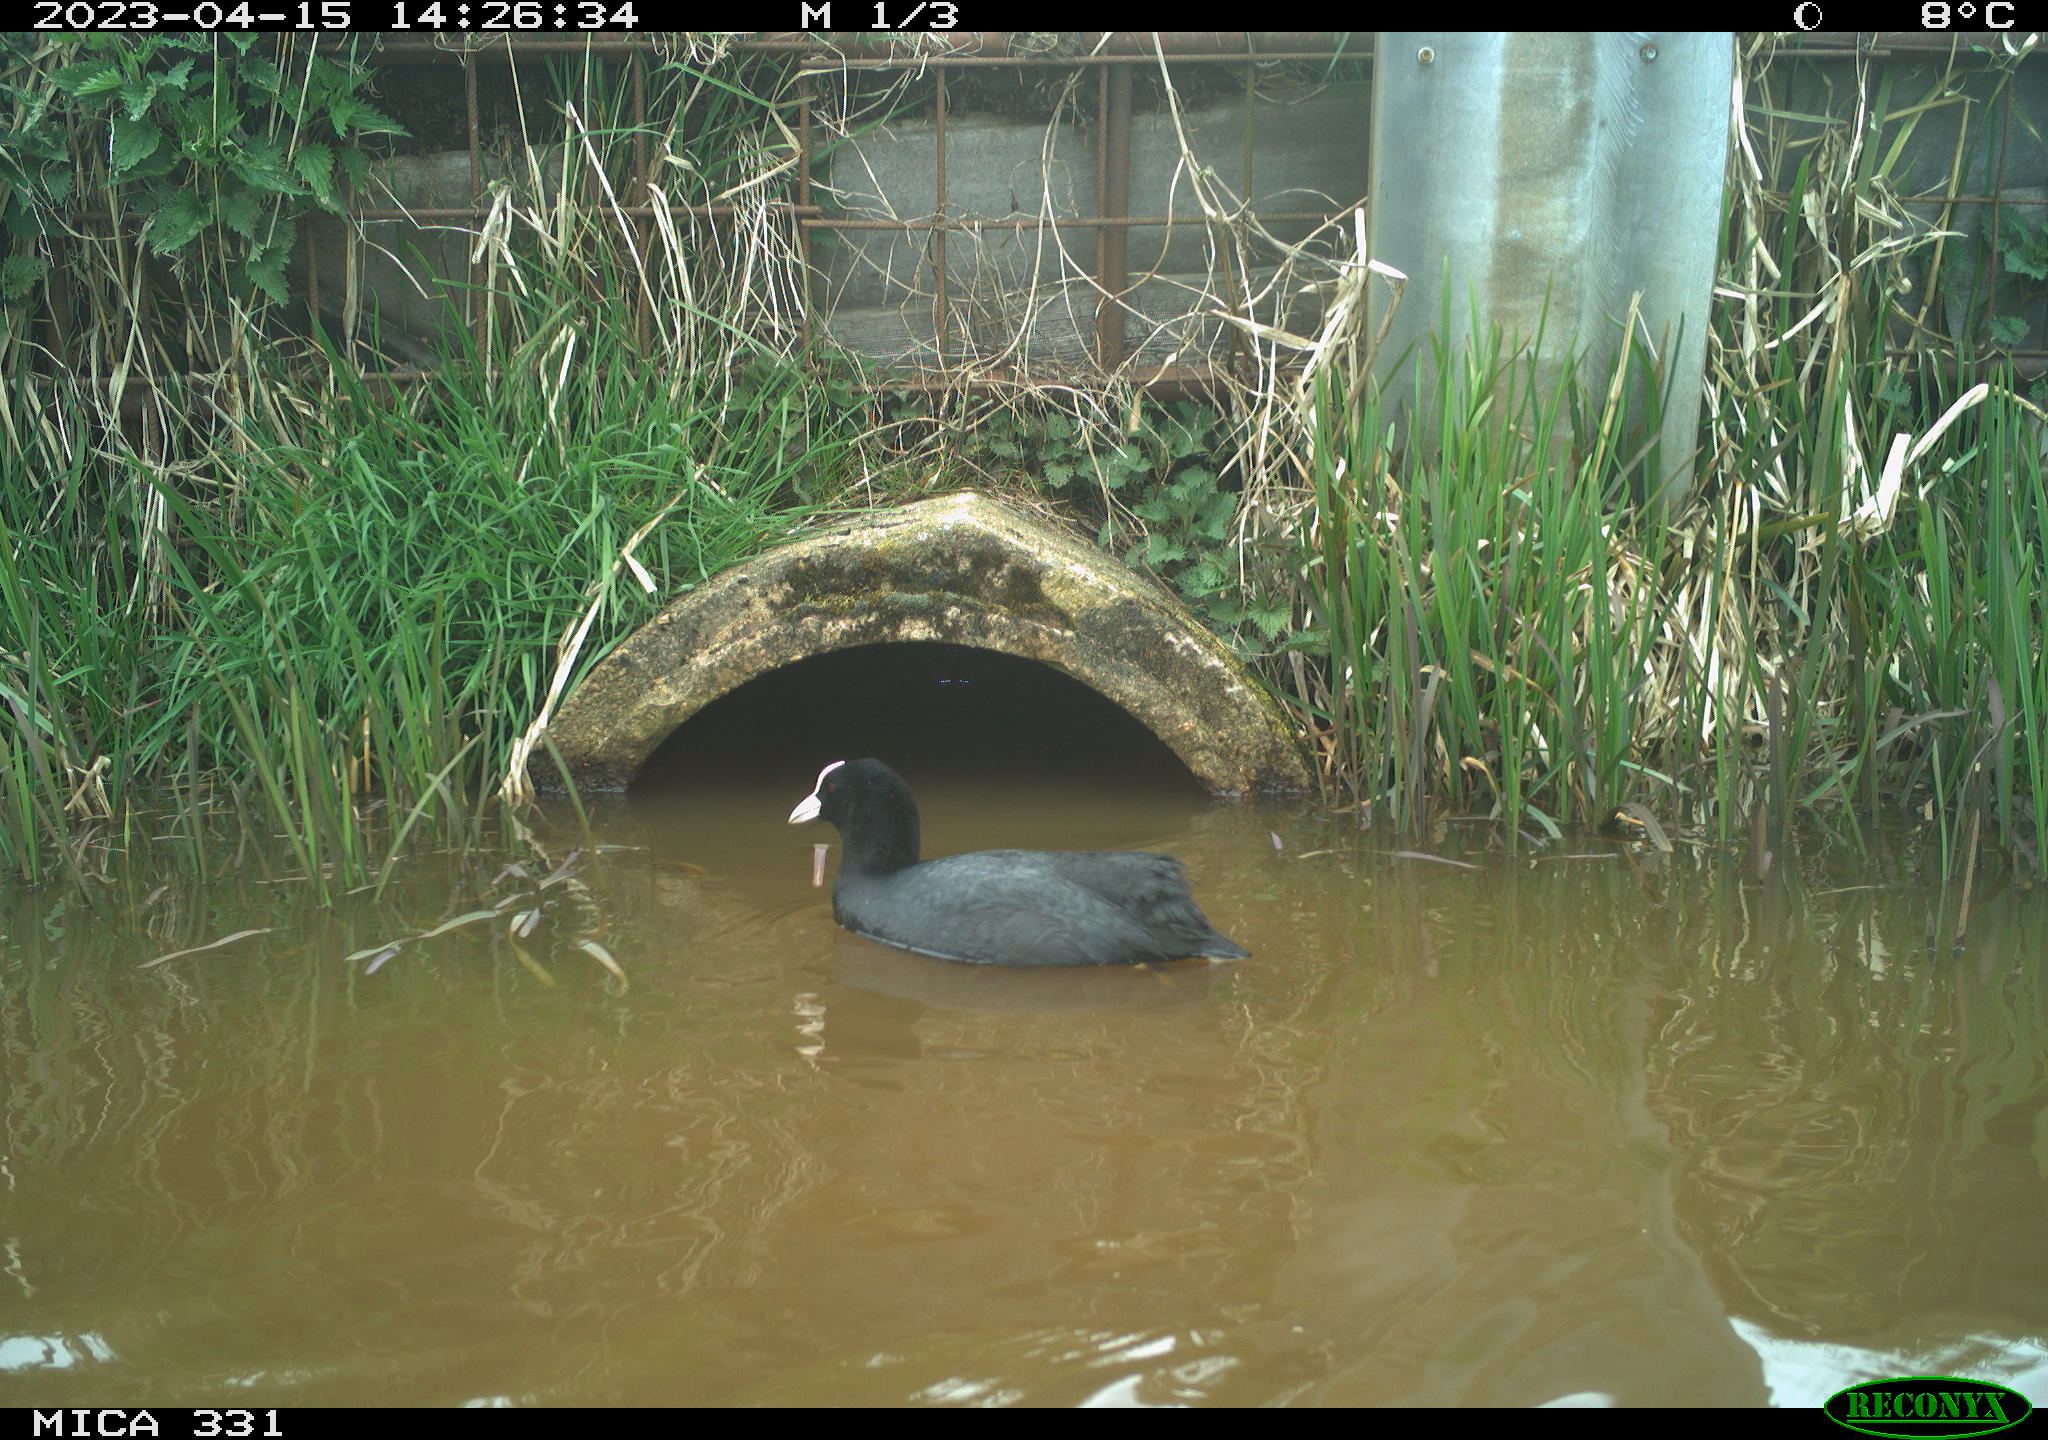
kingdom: Animalia
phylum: Chordata
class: Aves
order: Gruiformes
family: Rallidae
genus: Fulica
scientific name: Fulica atra
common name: Eurasian coot
